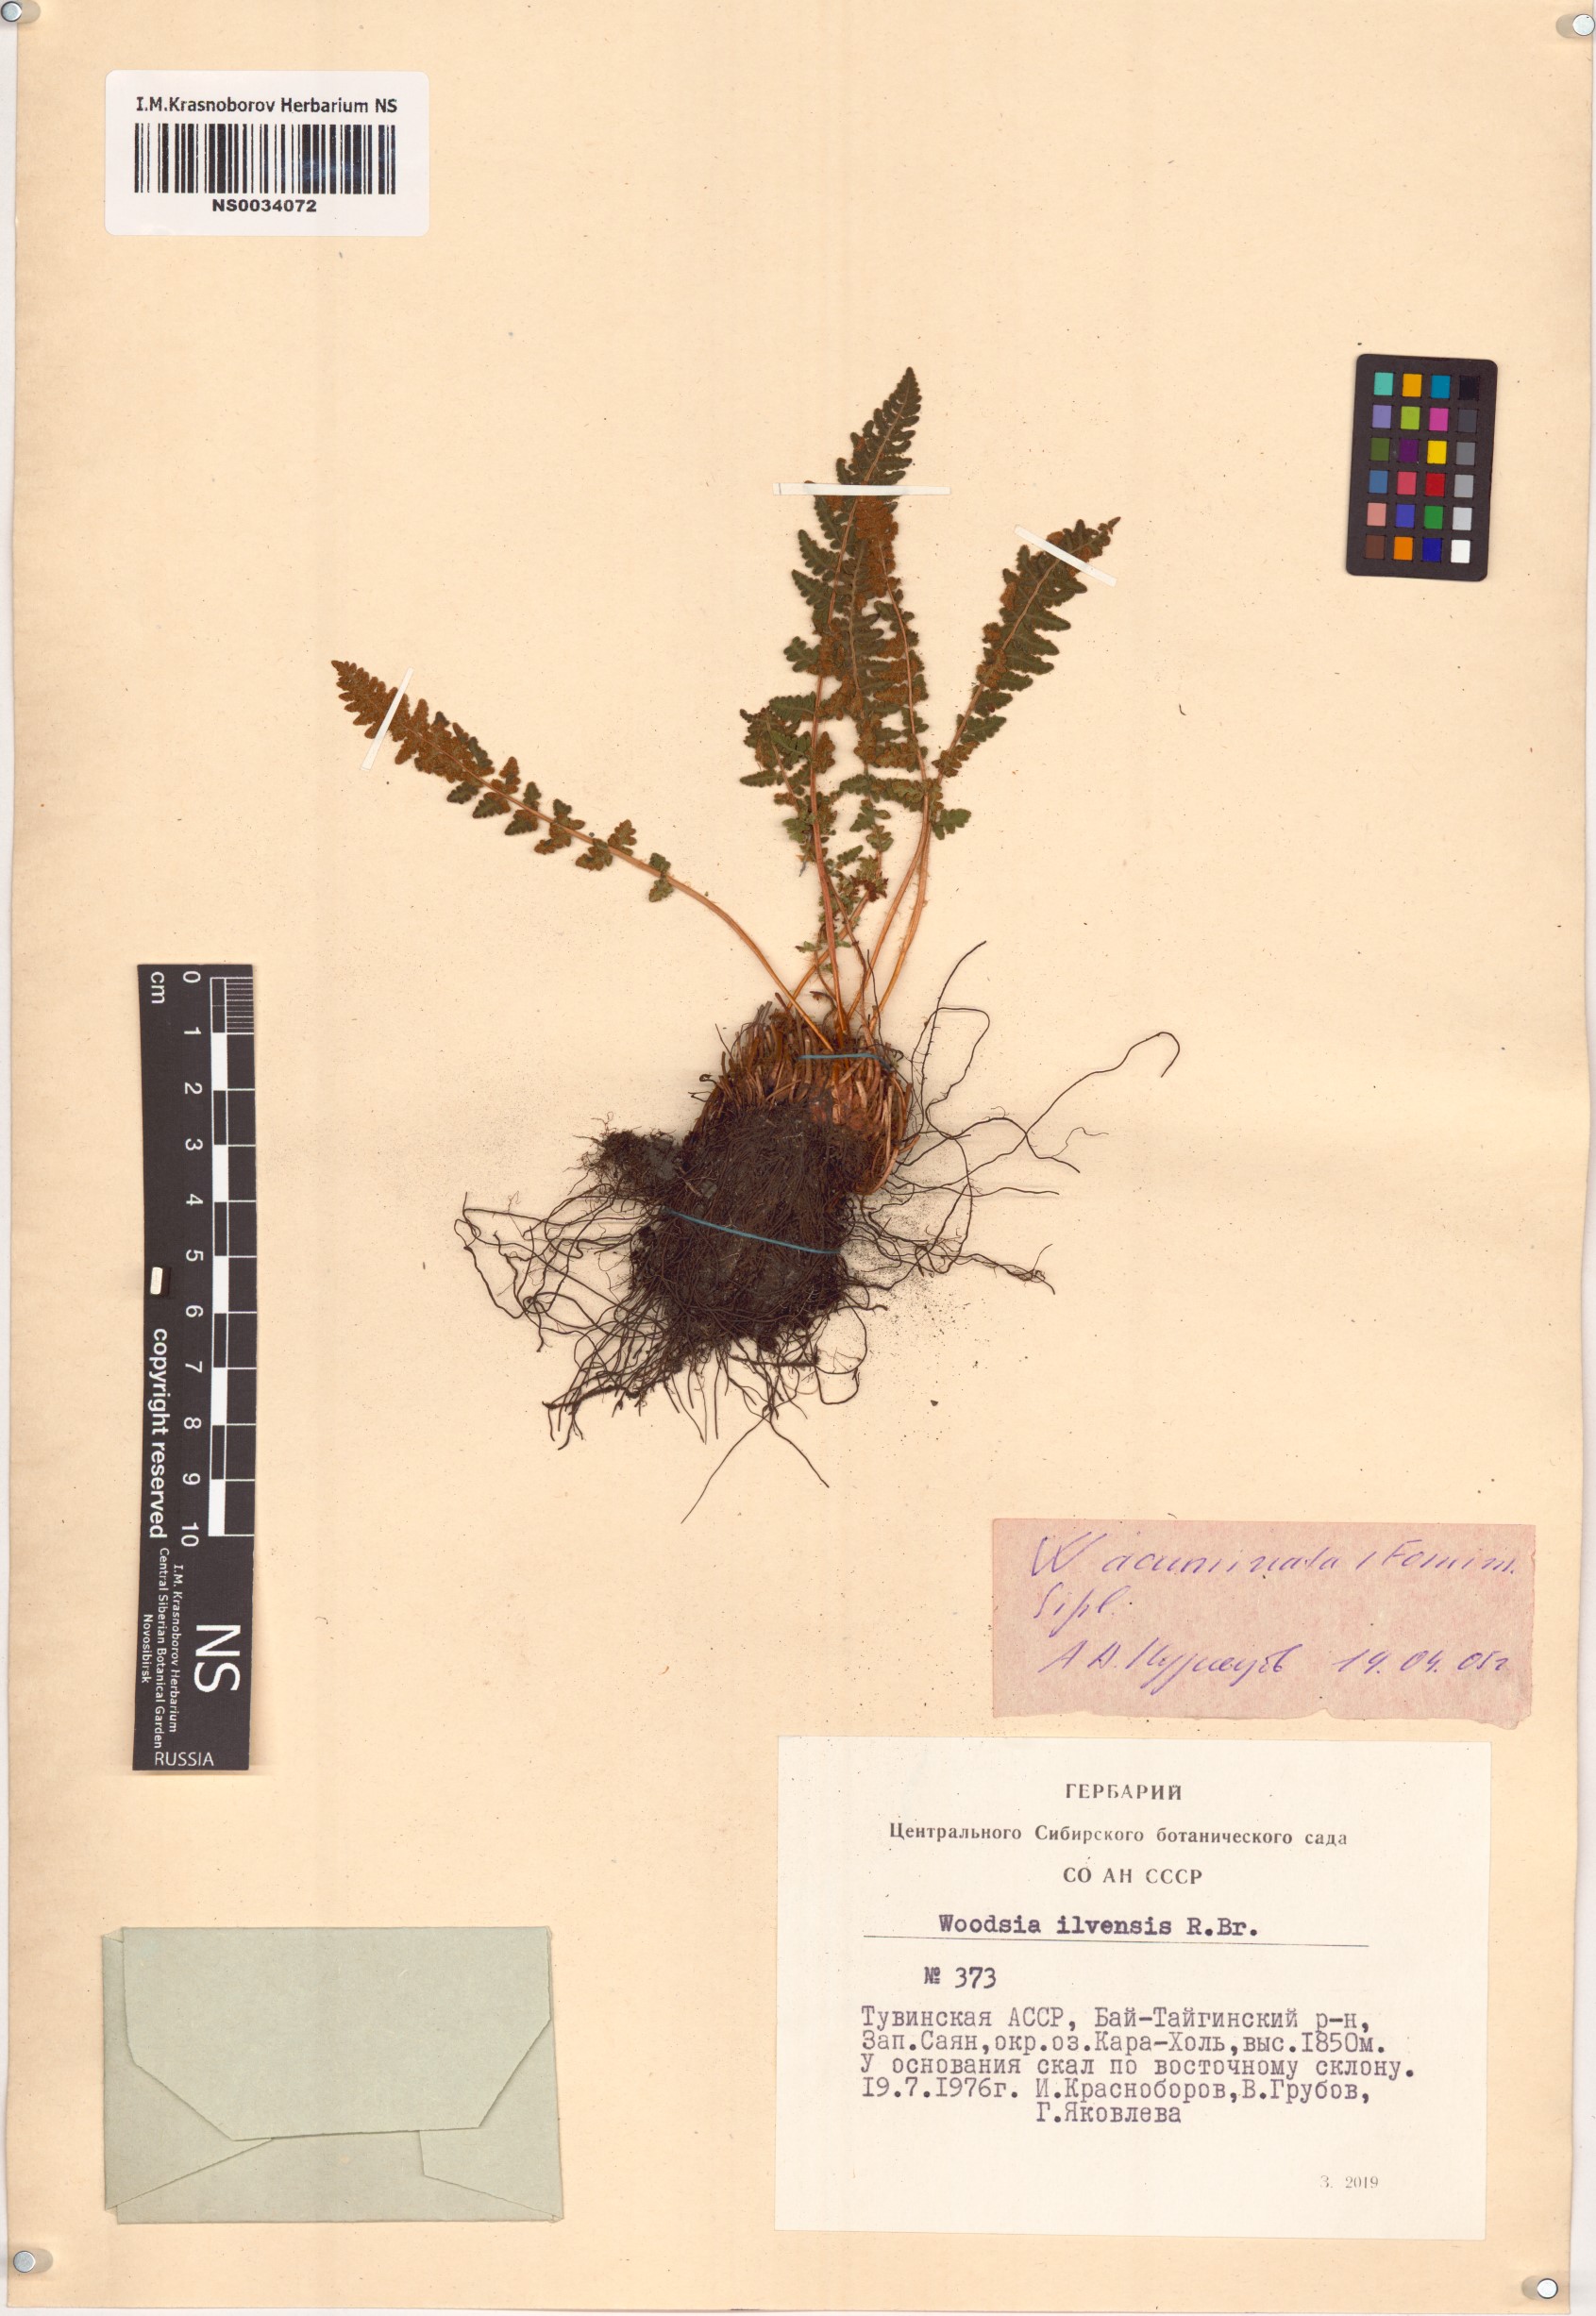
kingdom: Plantae
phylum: Tracheophyta
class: Polypodiopsida
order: Polypodiales
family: Woodsiaceae
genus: Woodsia
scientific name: Woodsia ilvensis
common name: Fragrant woodsia
